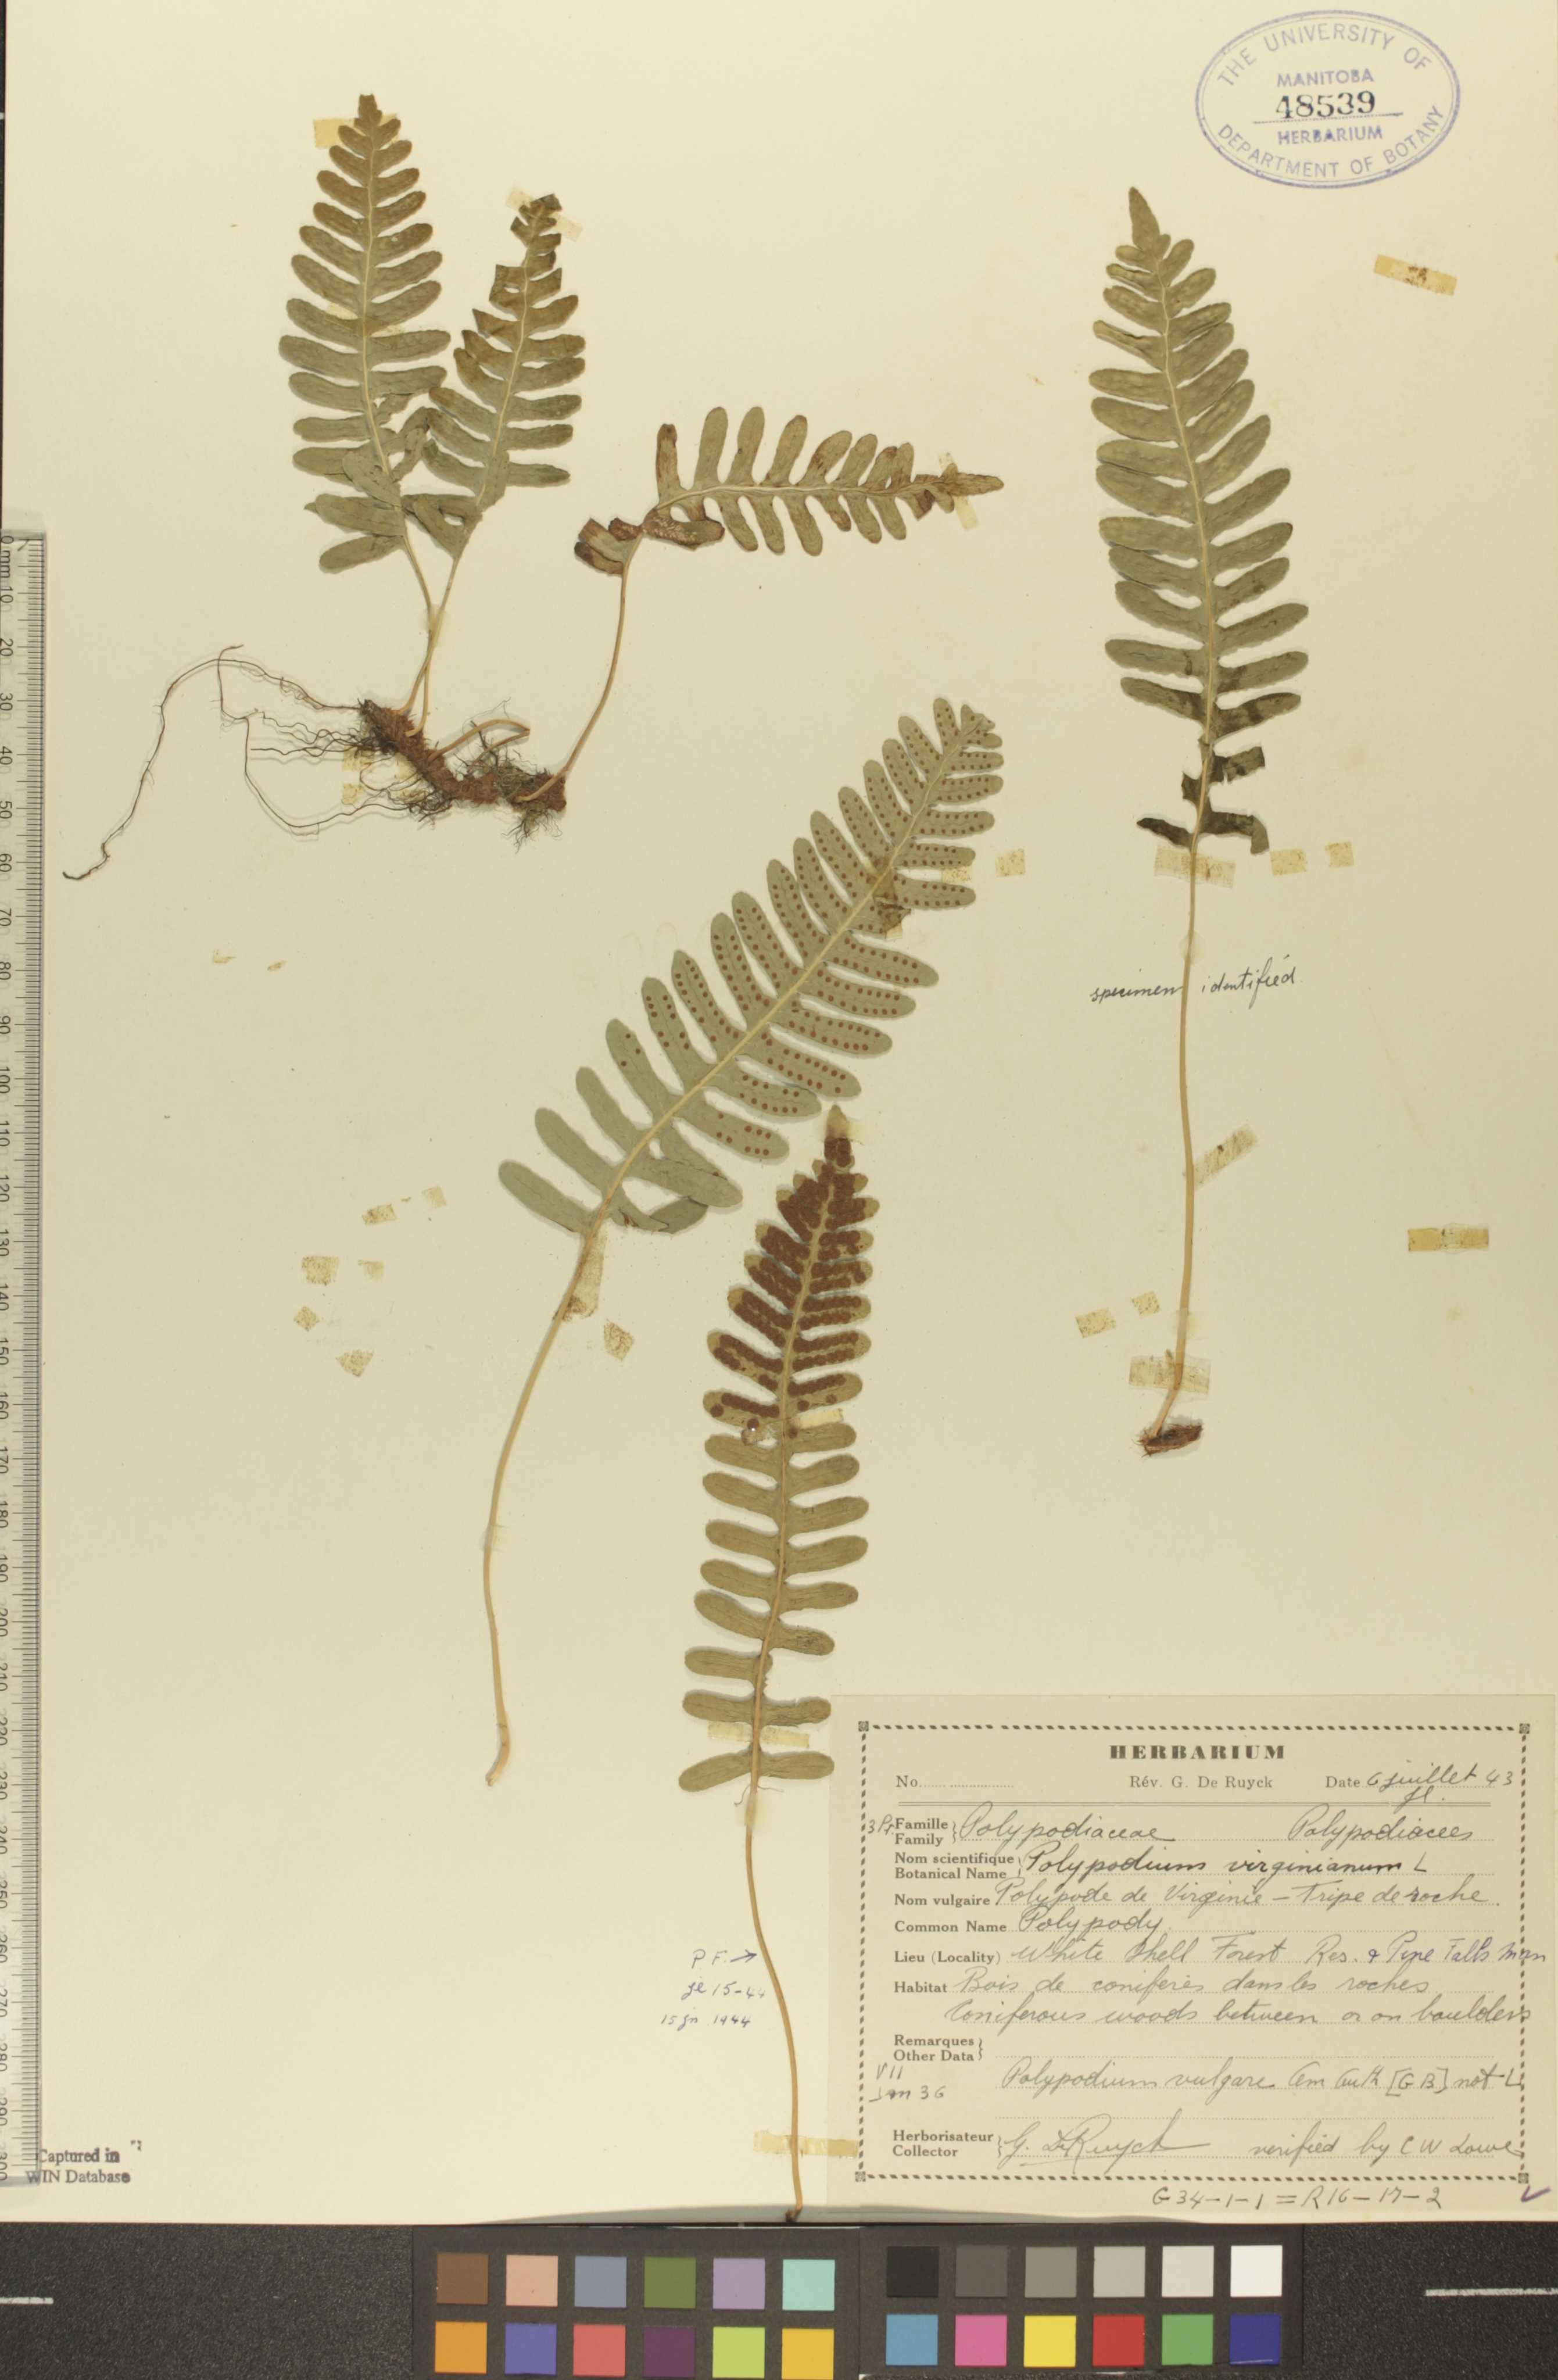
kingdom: Plantae
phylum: Tracheophyta
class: Polypodiopsida
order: Polypodiales
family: Polypodiaceae
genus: Polypodium
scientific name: Polypodium virginianum
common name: American wall fern
